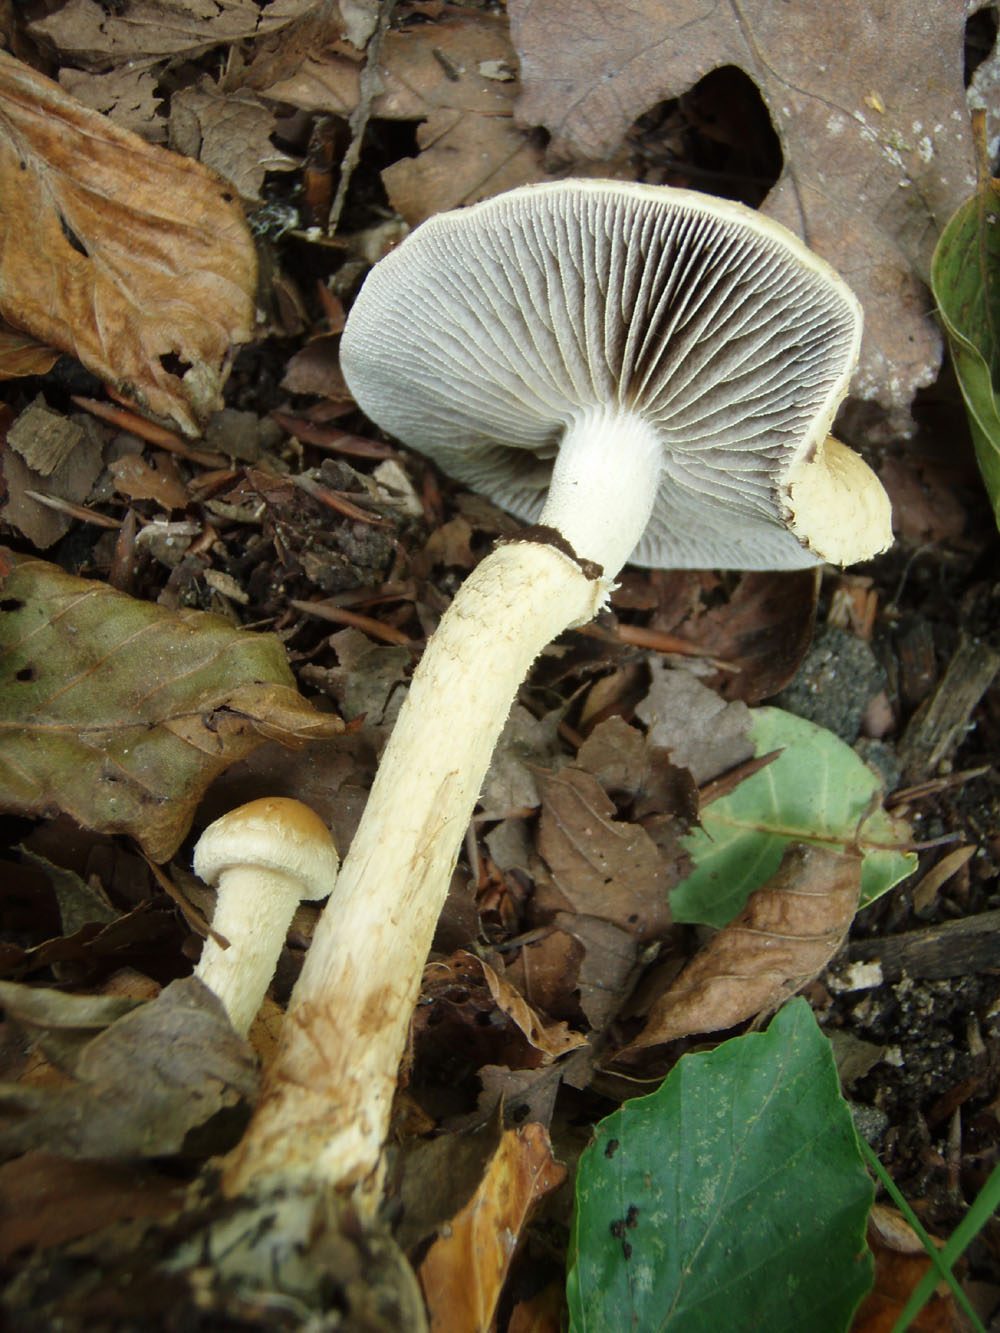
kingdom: Fungi
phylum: Basidiomycota
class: Agaricomycetes
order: Agaricales
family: Strophariaceae
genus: Leratiomyces
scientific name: Leratiomyces squamosus
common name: skællet bredblad
